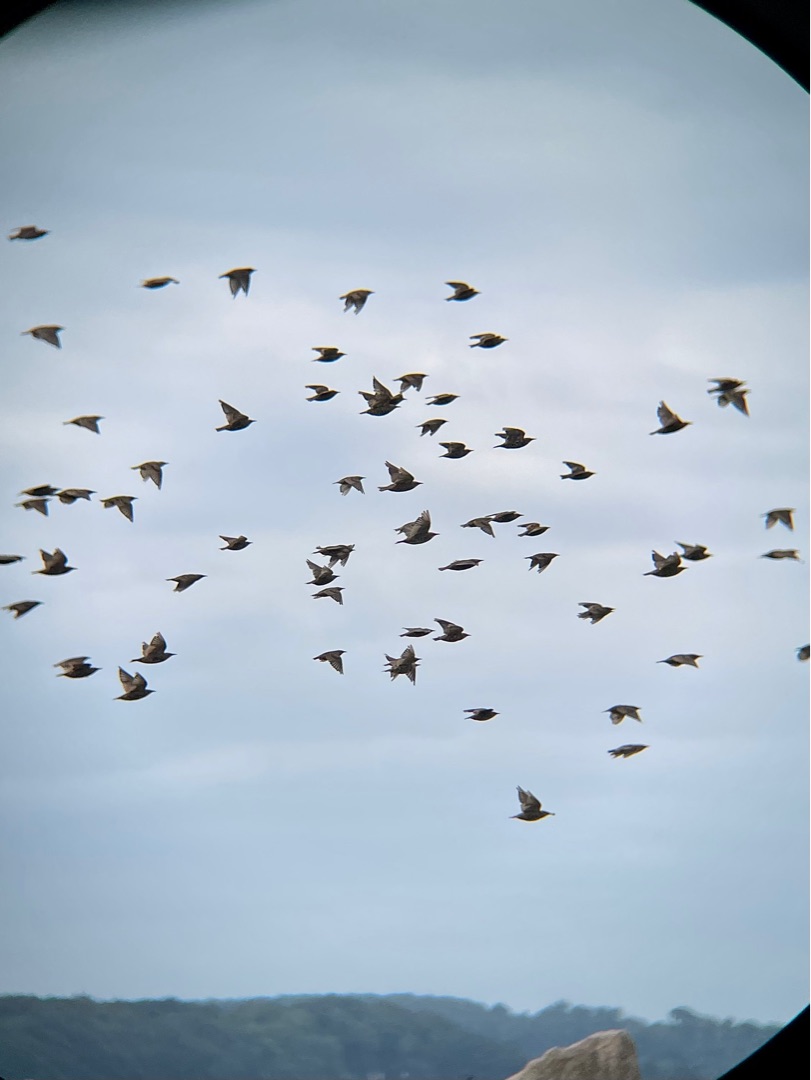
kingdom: Animalia
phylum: Chordata
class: Aves
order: Passeriformes
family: Sturnidae
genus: Sturnus
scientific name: Sturnus vulgaris
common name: Stær
